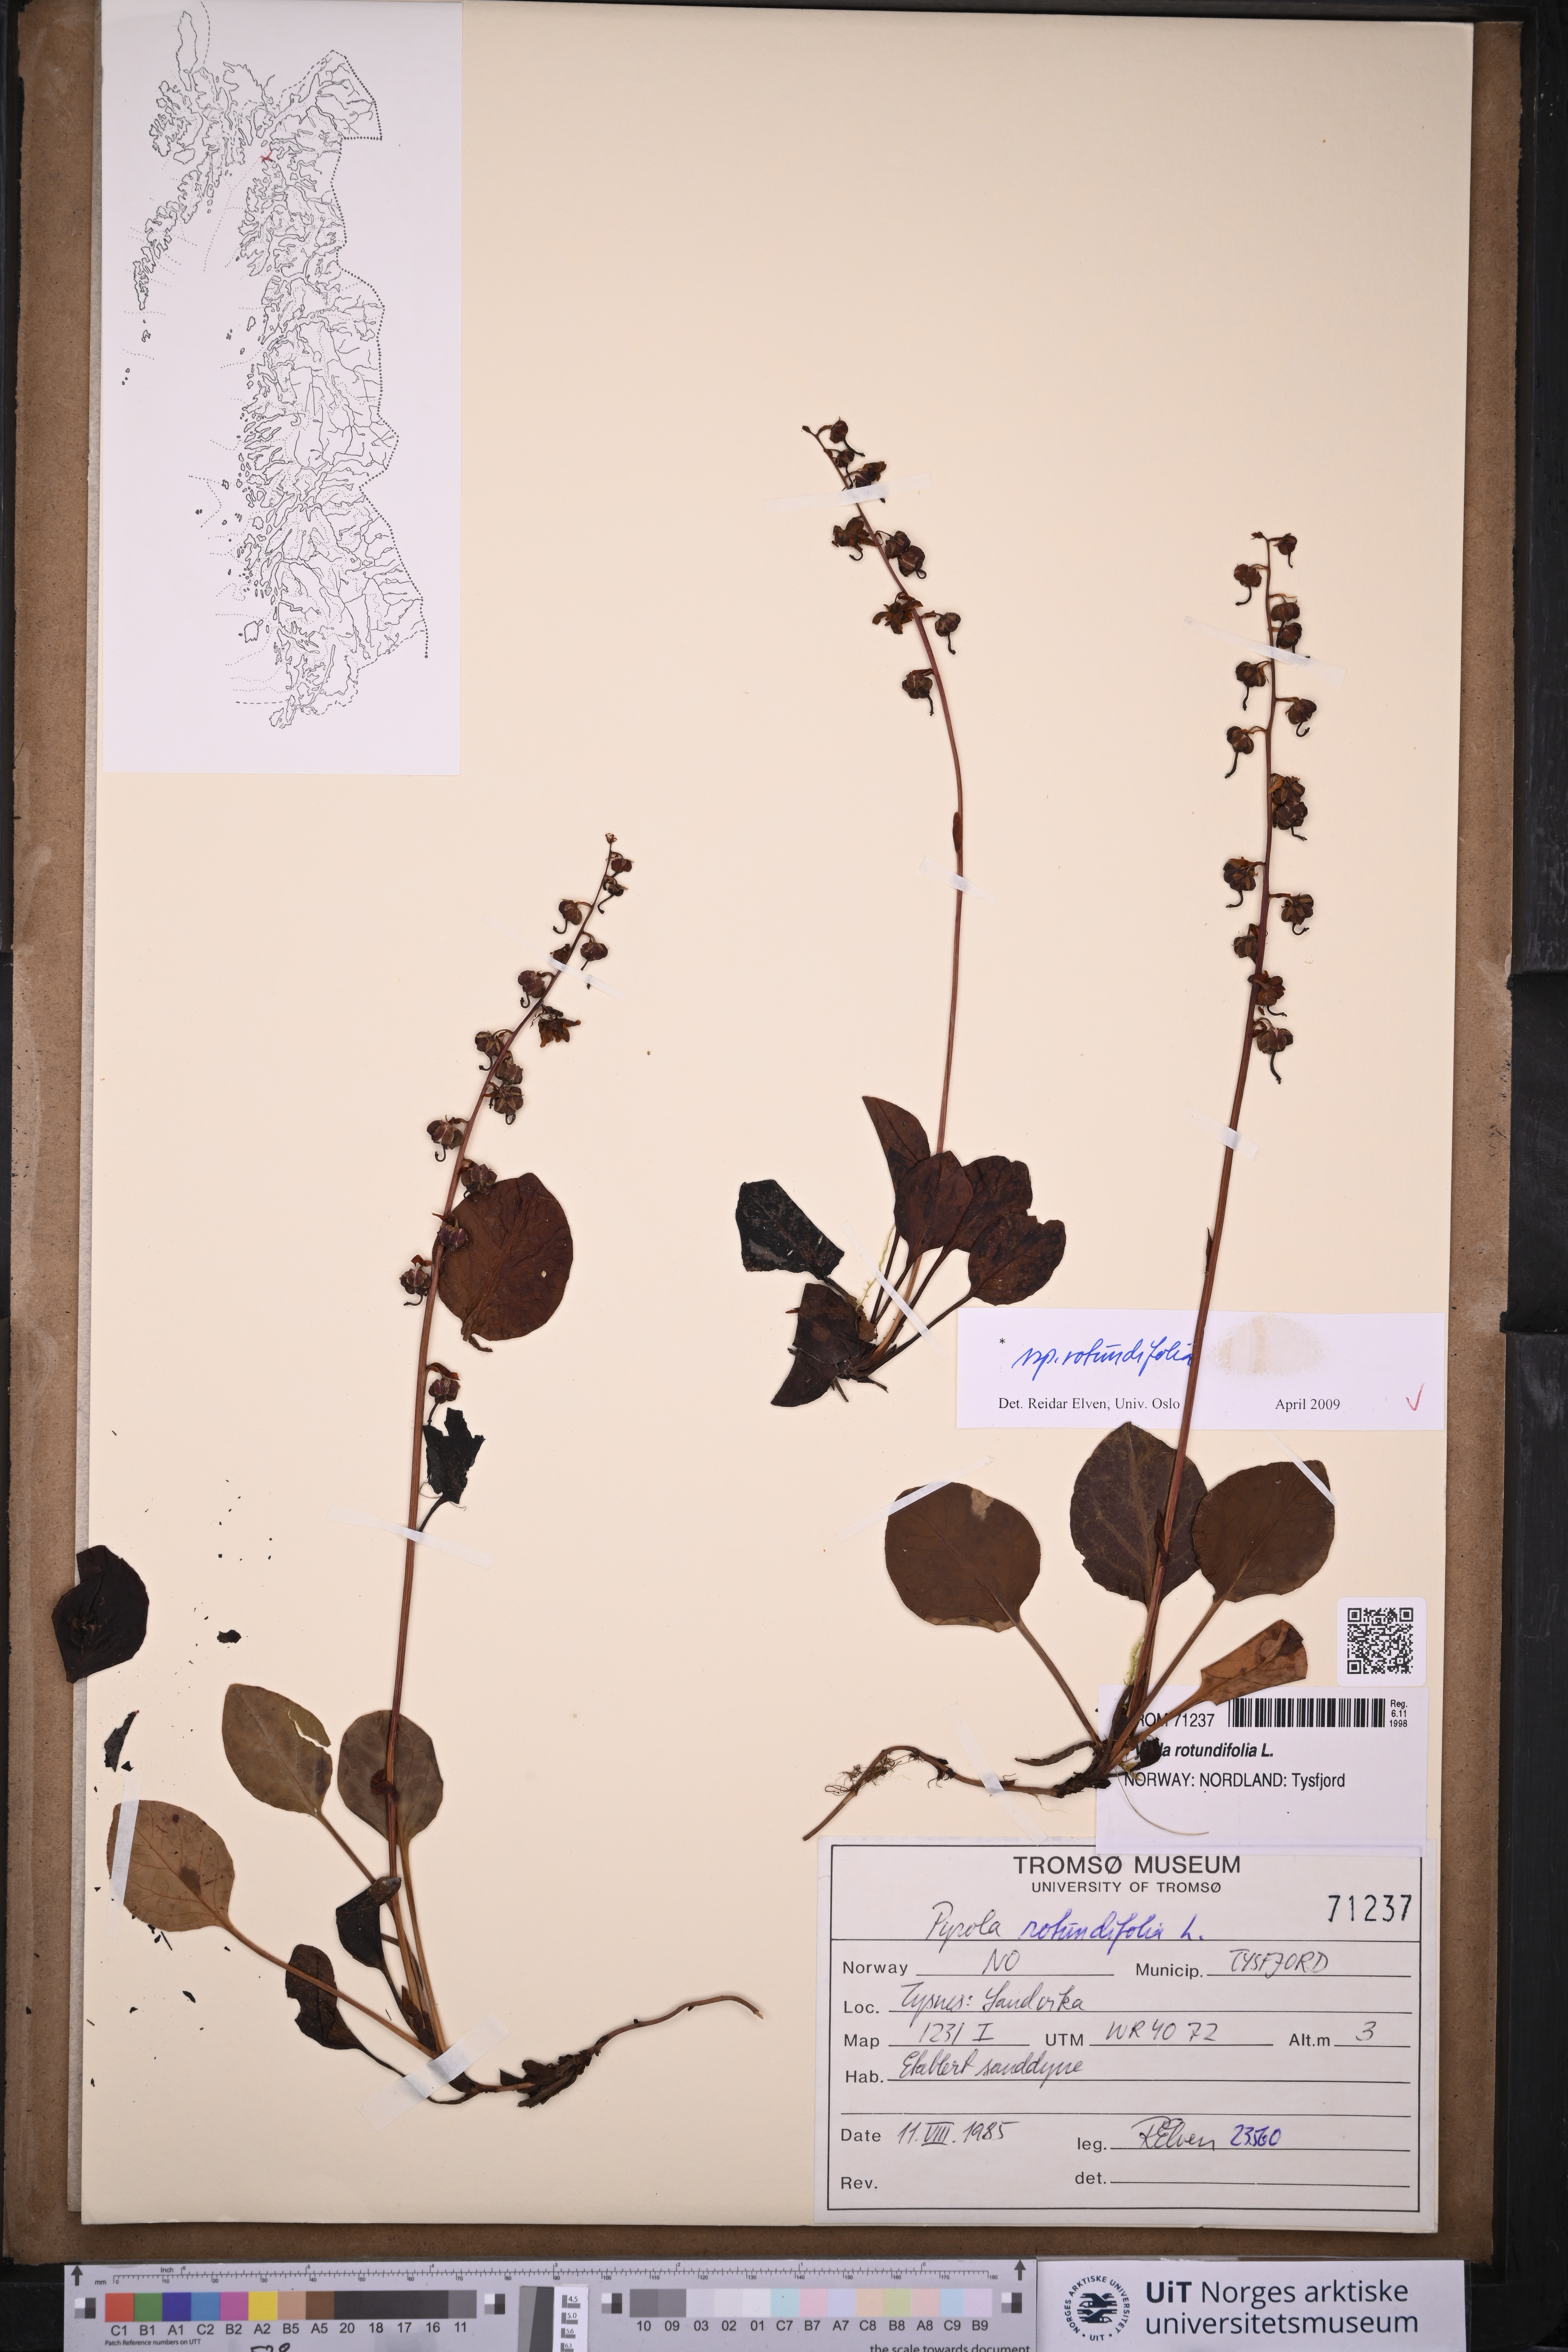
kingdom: Plantae
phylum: Tracheophyta
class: Magnoliopsida
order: Ericales
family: Ericaceae
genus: Pyrola
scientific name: Pyrola rotundifolia
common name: Round-leaved wintergreen
